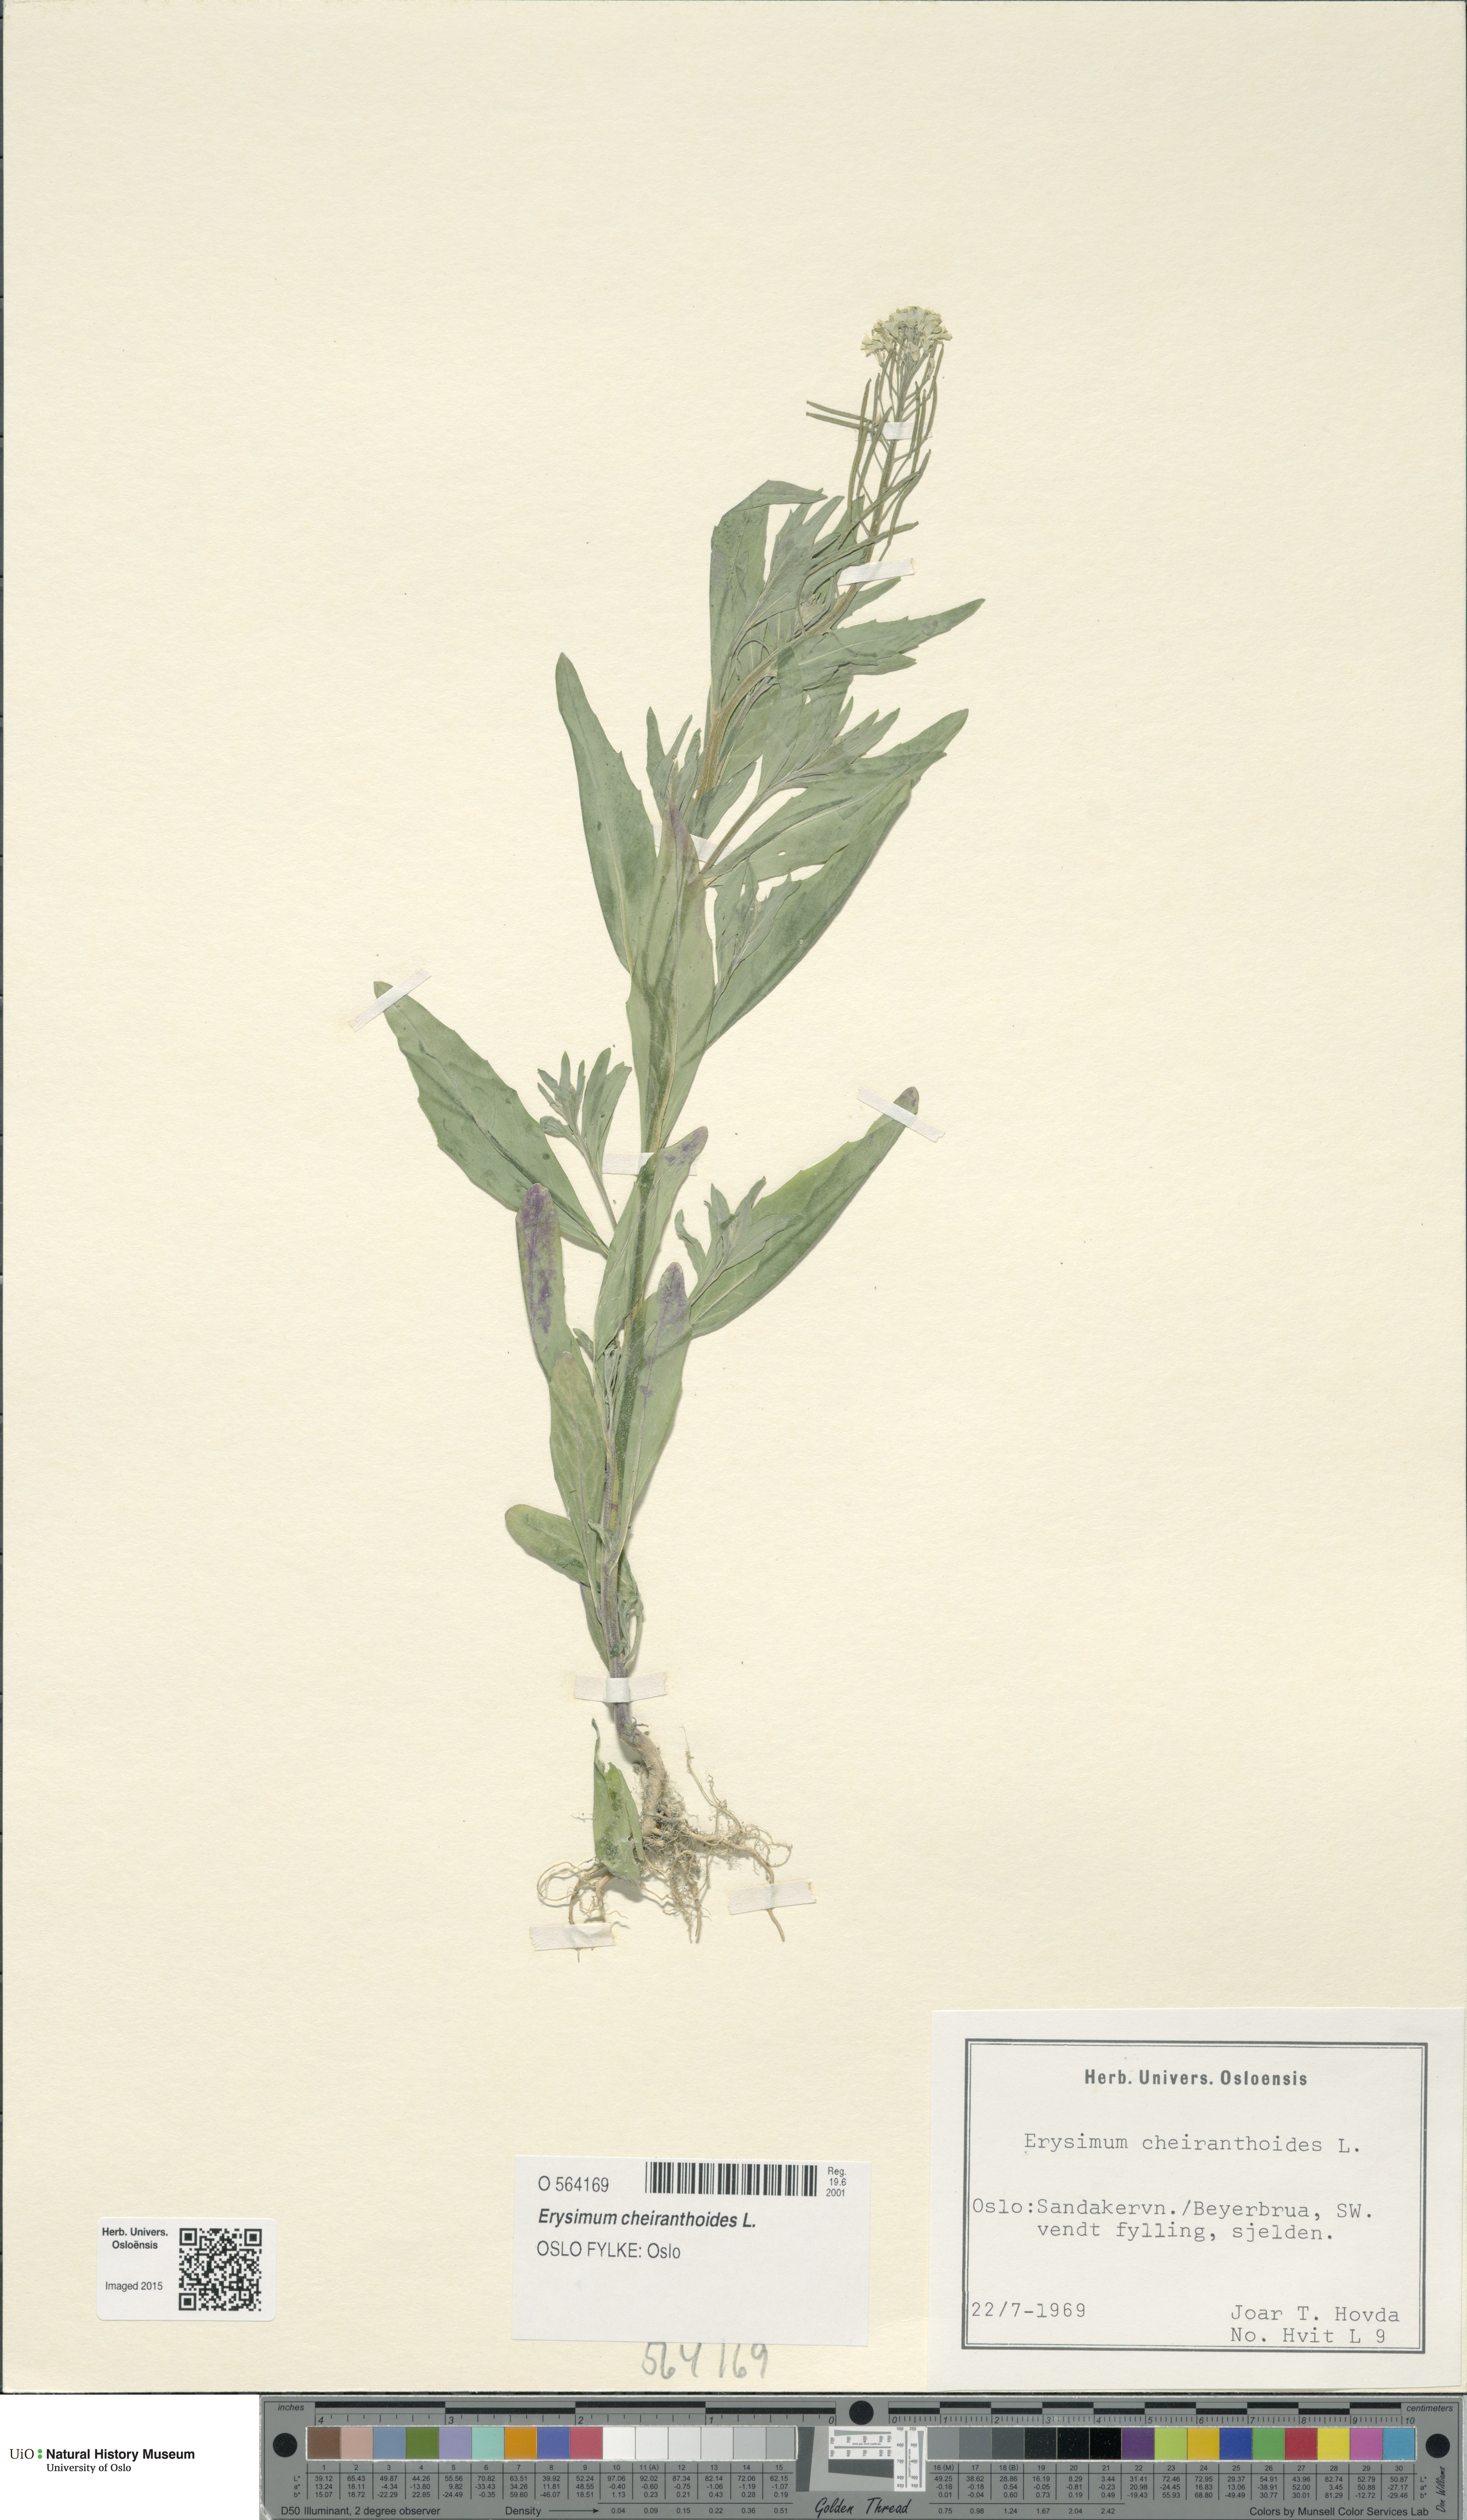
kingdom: Plantae
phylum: Tracheophyta
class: Magnoliopsida
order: Brassicales
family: Brassicaceae
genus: Erysimum
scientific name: Erysimum cheiranthoides
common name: Treacle mustard
